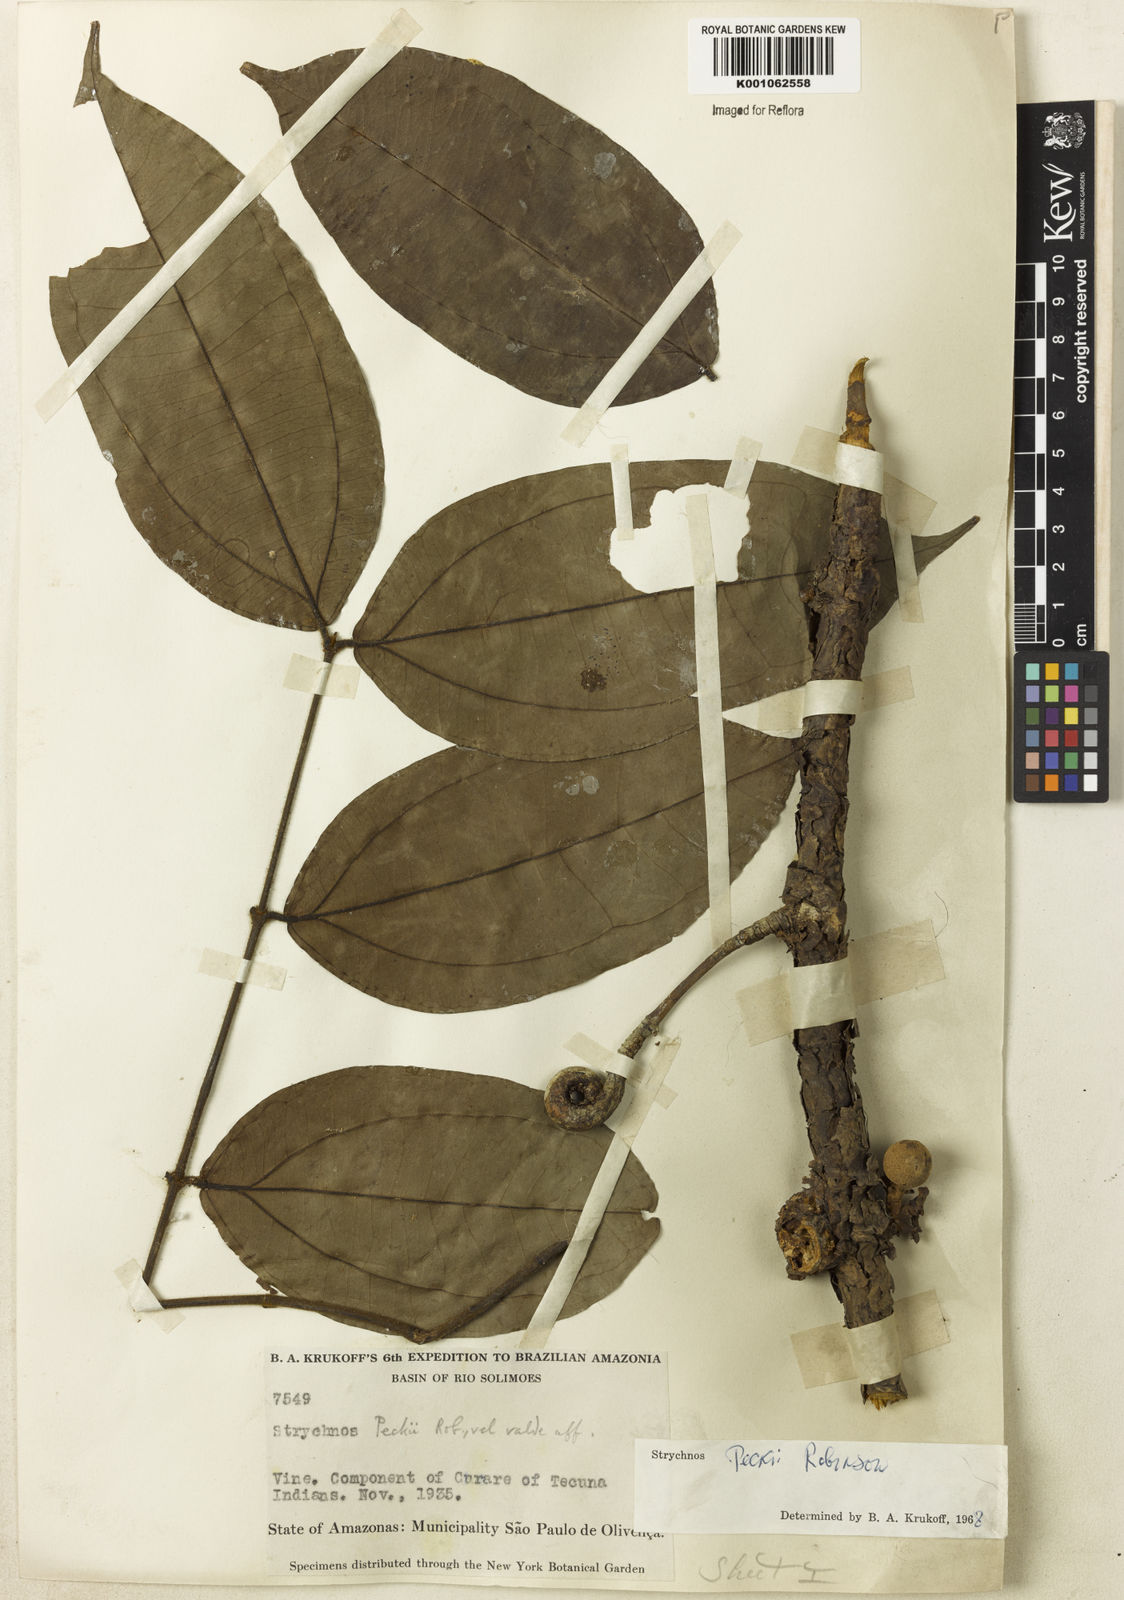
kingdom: Plantae
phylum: Tracheophyta
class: Magnoliopsida
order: Gentianales
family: Loganiaceae
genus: Strychnos
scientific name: Strychnos peckii
